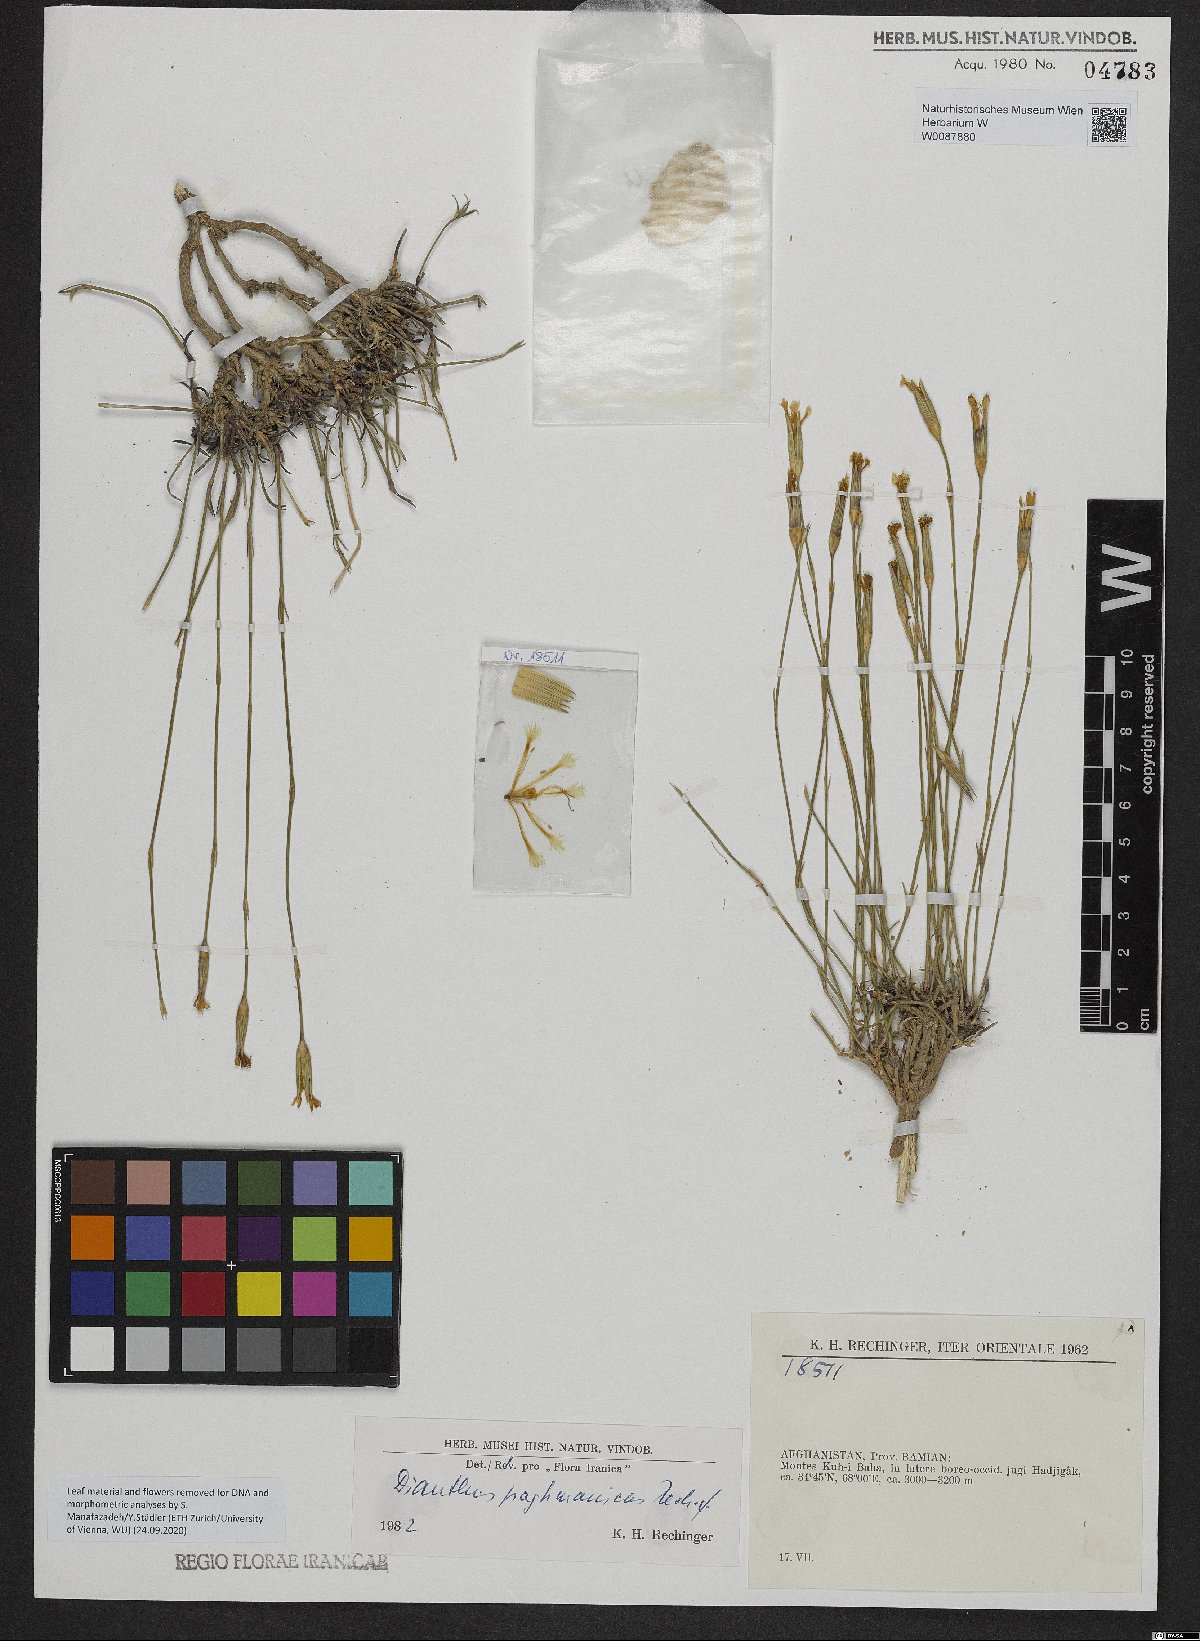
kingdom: Plantae
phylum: Tracheophyta
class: Magnoliopsida
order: Caryophyllales
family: Caryophyllaceae
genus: Dianthus
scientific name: Dianthus paghmanicus
